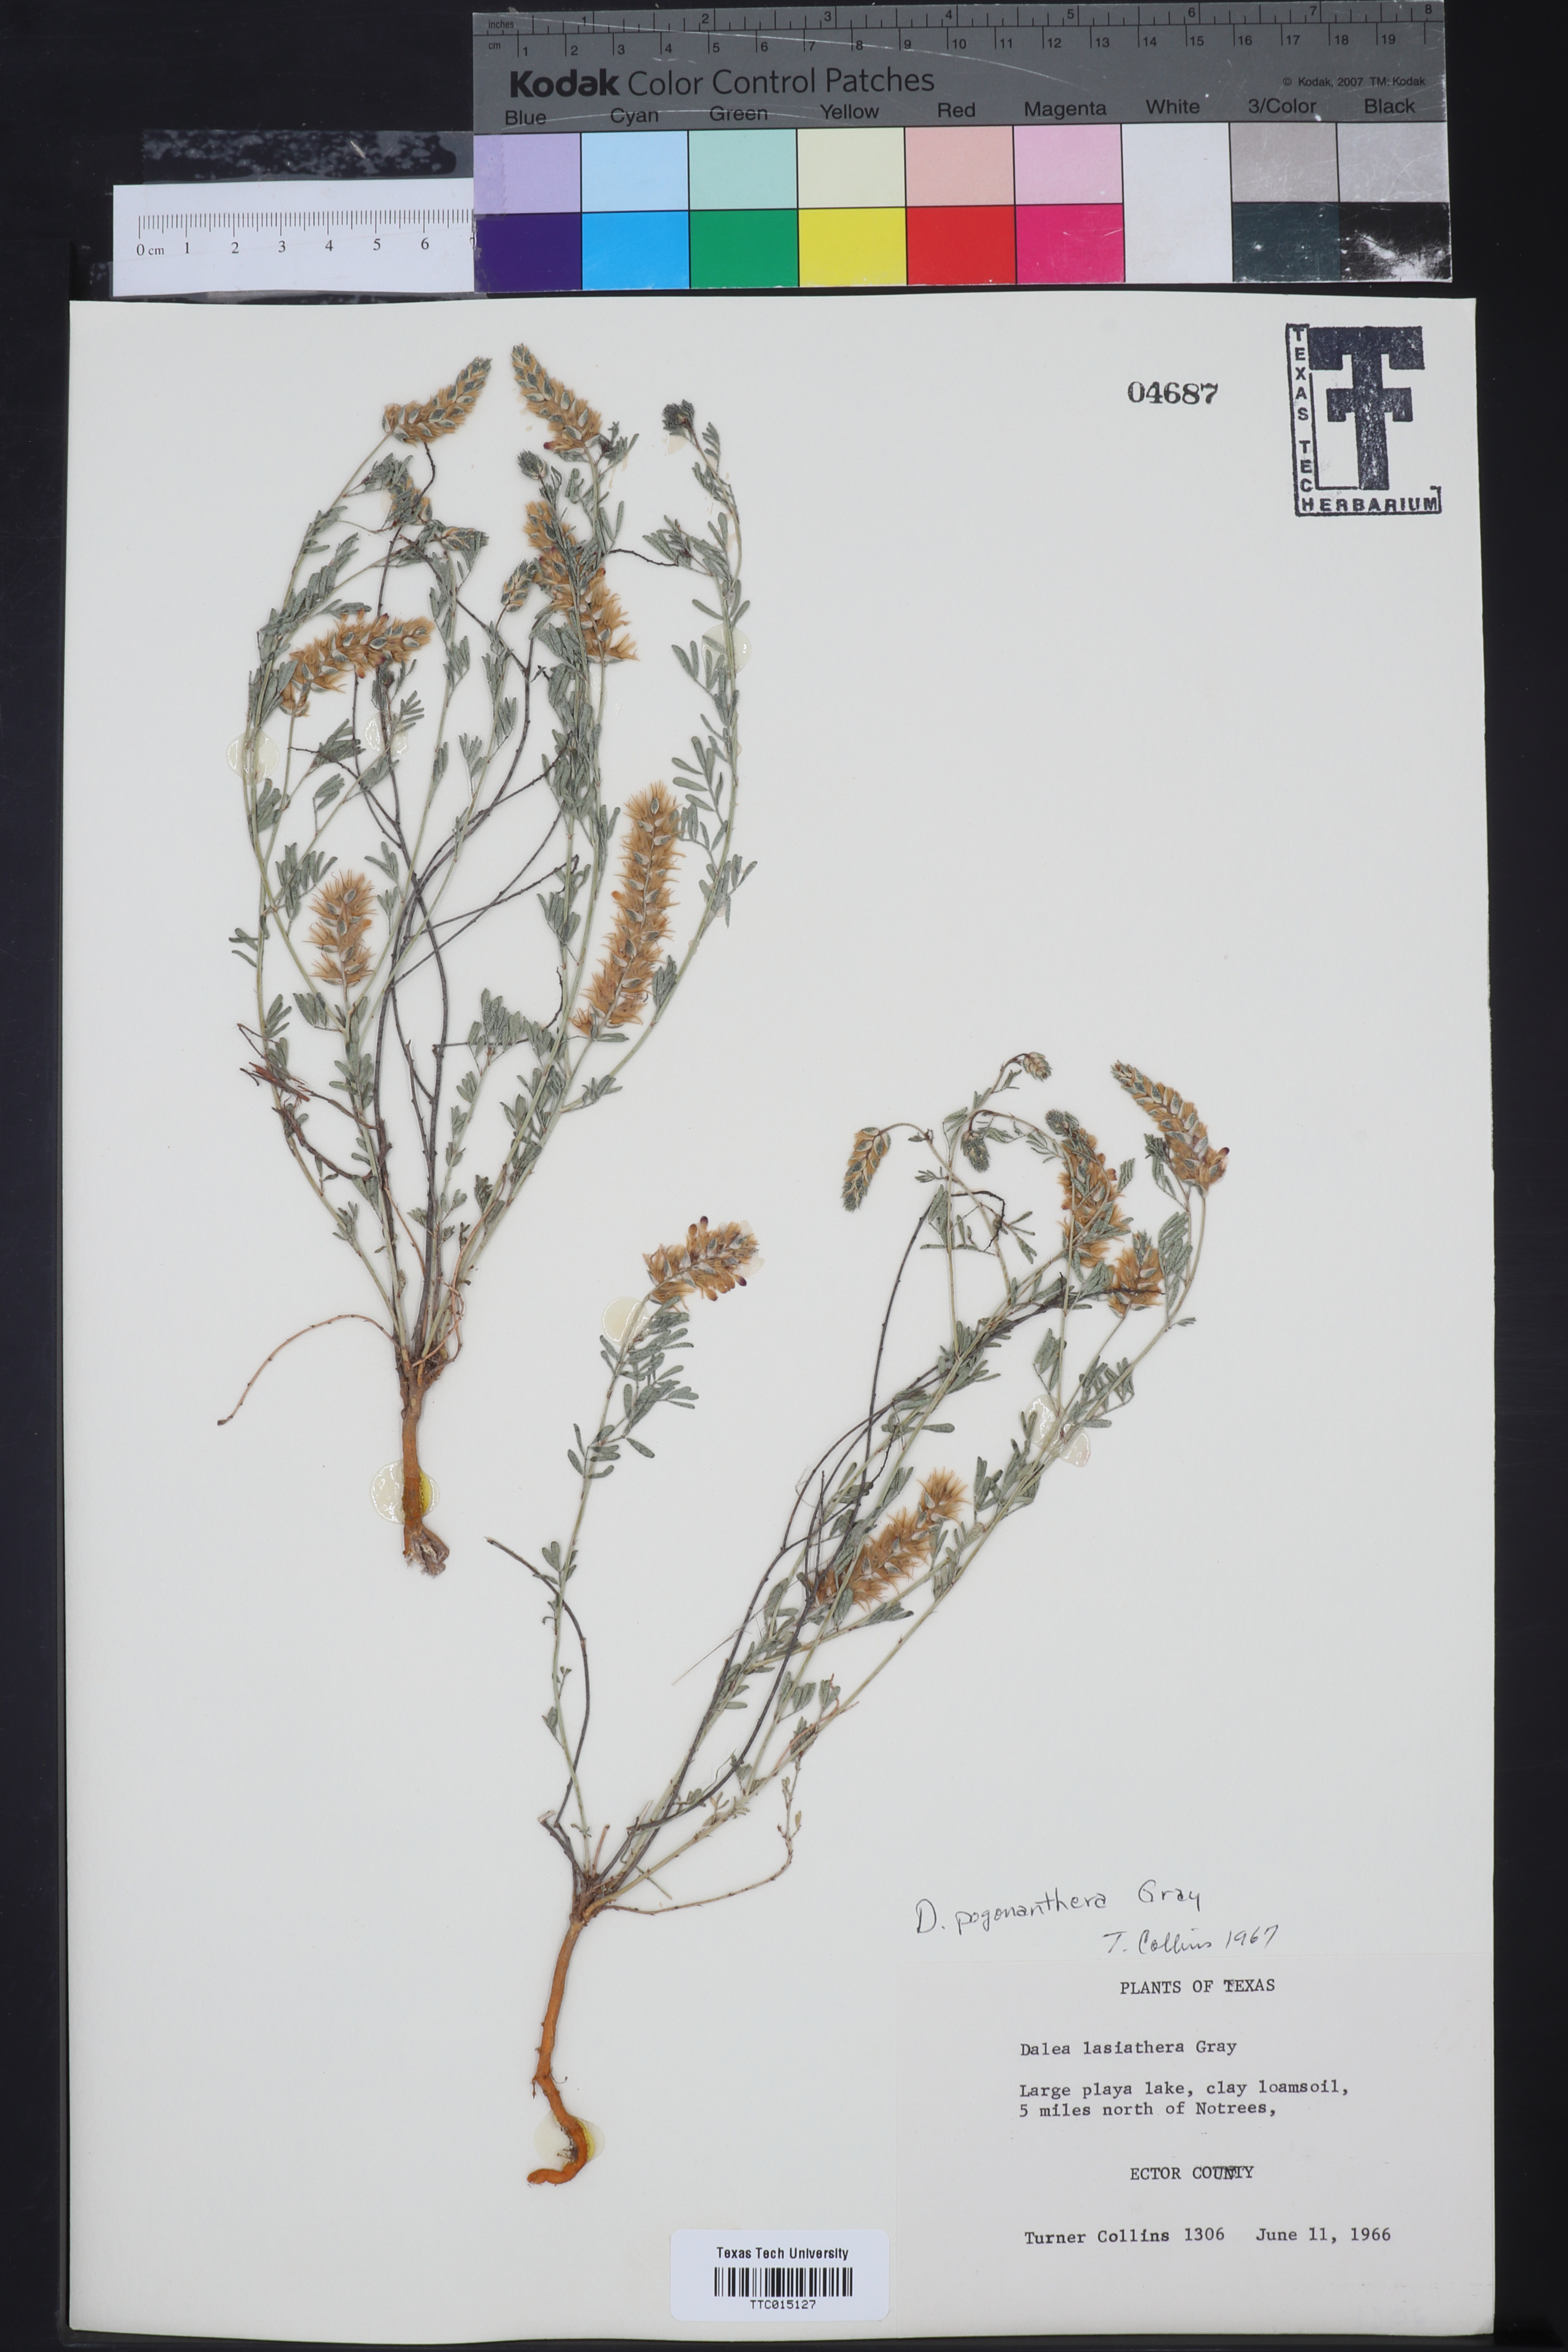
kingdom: Plantae
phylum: Tracheophyta
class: Magnoliopsida
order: Fabales
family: Fabaceae
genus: Dalea
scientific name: Dalea pogonathera
